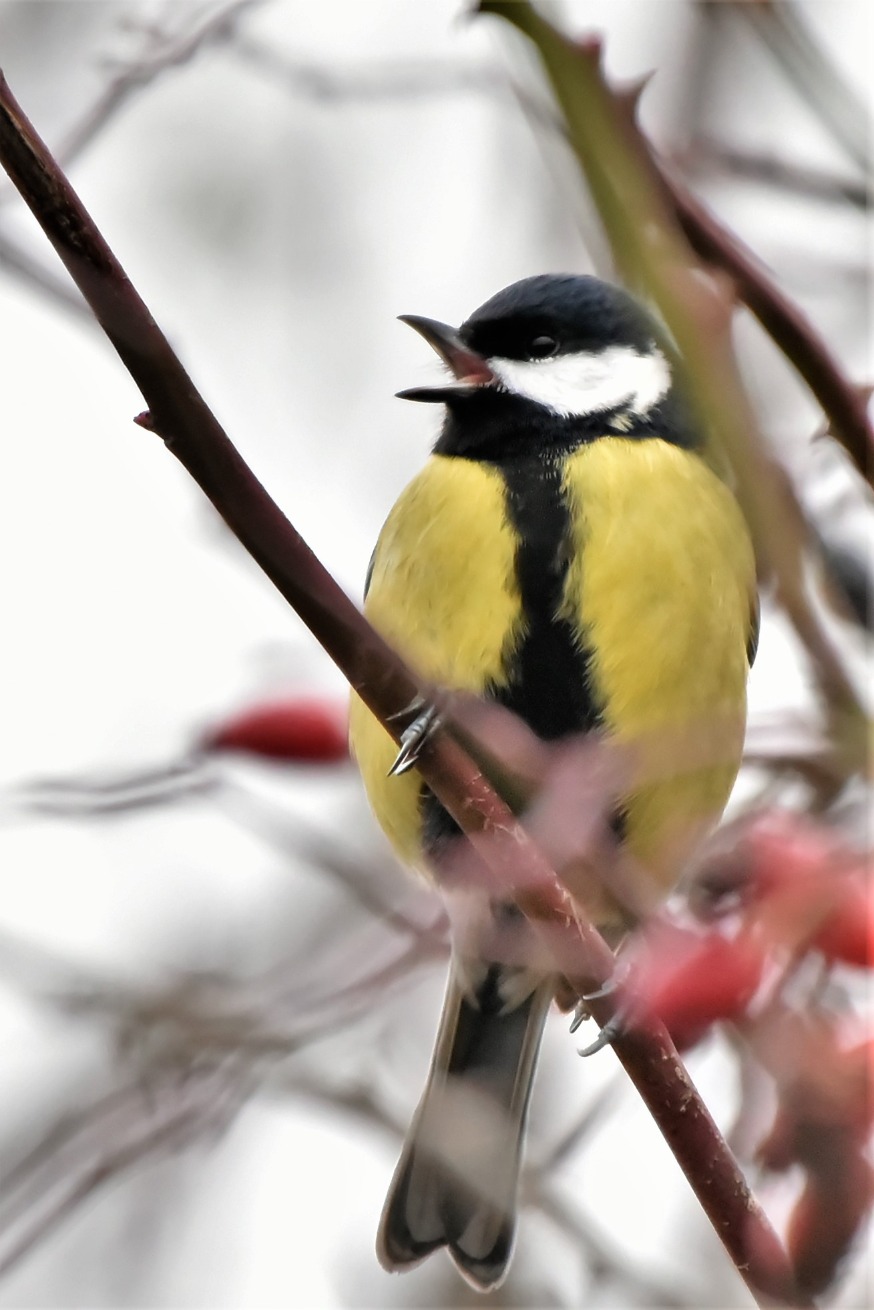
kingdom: Animalia
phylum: Chordata
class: Aves
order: Passeriformes
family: Paridae
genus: Parus
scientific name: Parus major
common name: Musvit
